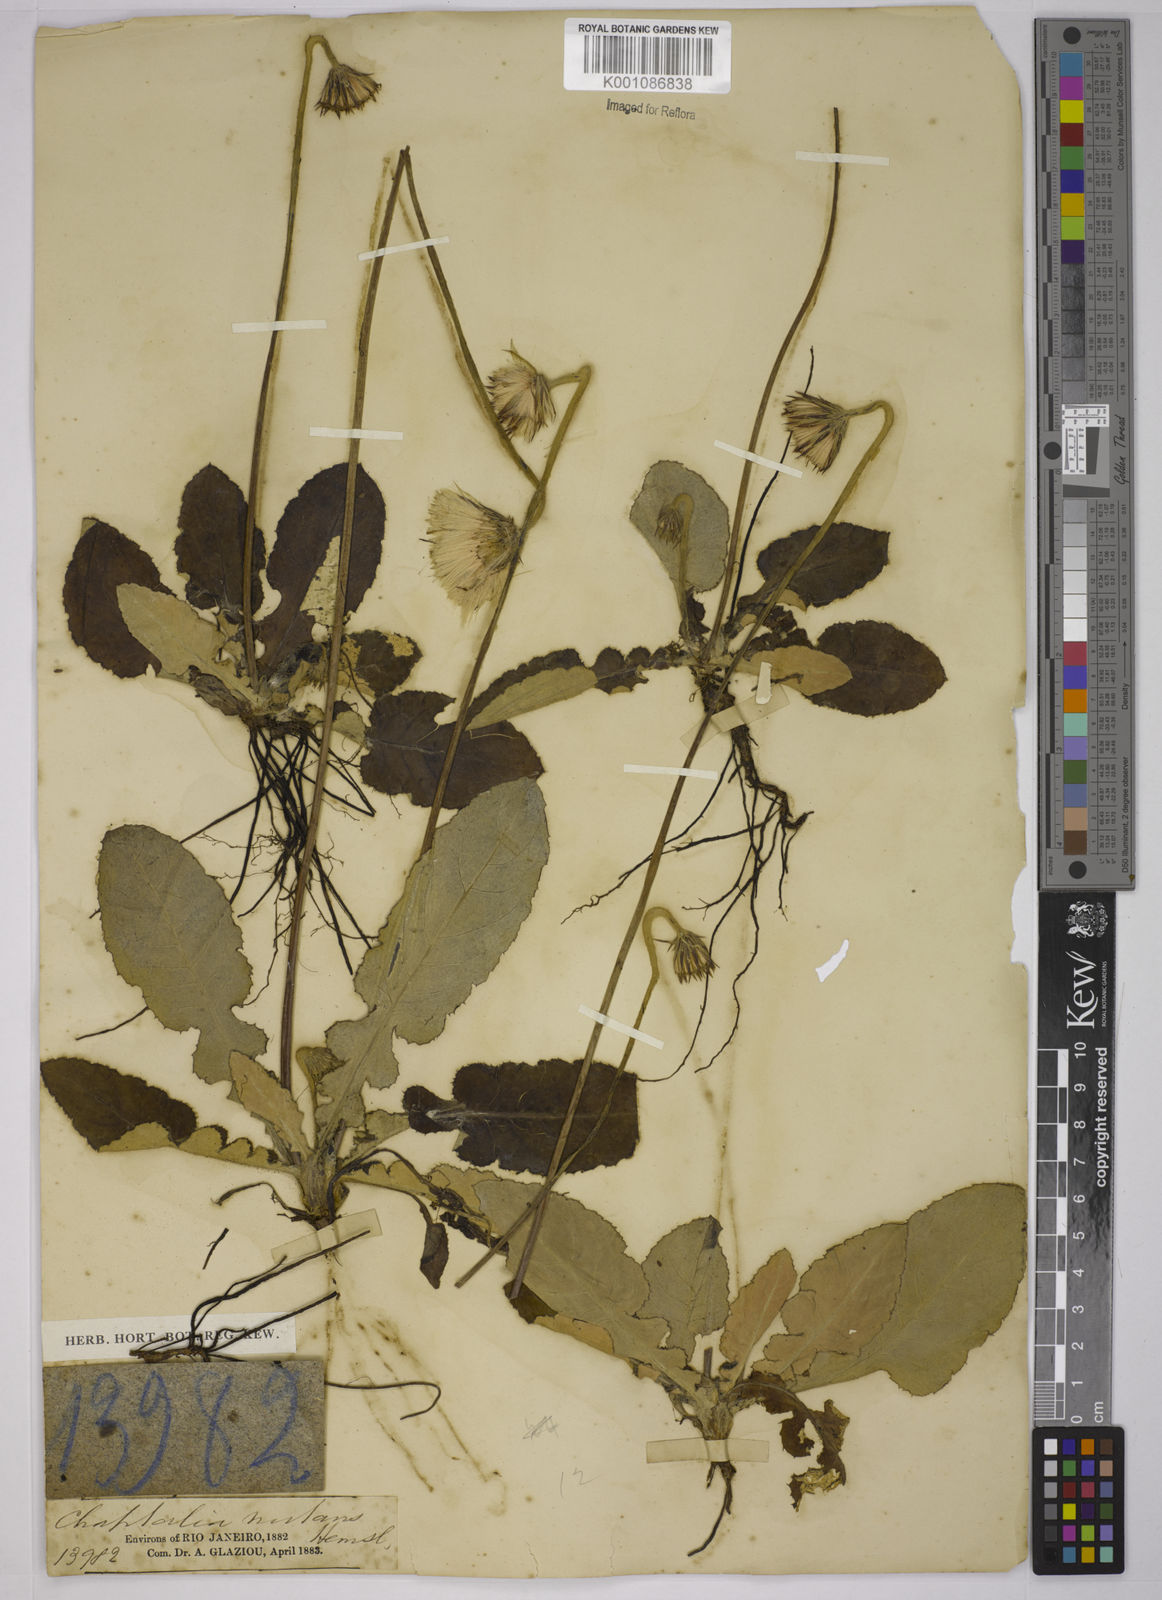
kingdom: Plantae
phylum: Tracheophyta
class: Magnoliopsida
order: Asterales
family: Asteraceae
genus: Chaptalia
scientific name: Chaptalia nutans
